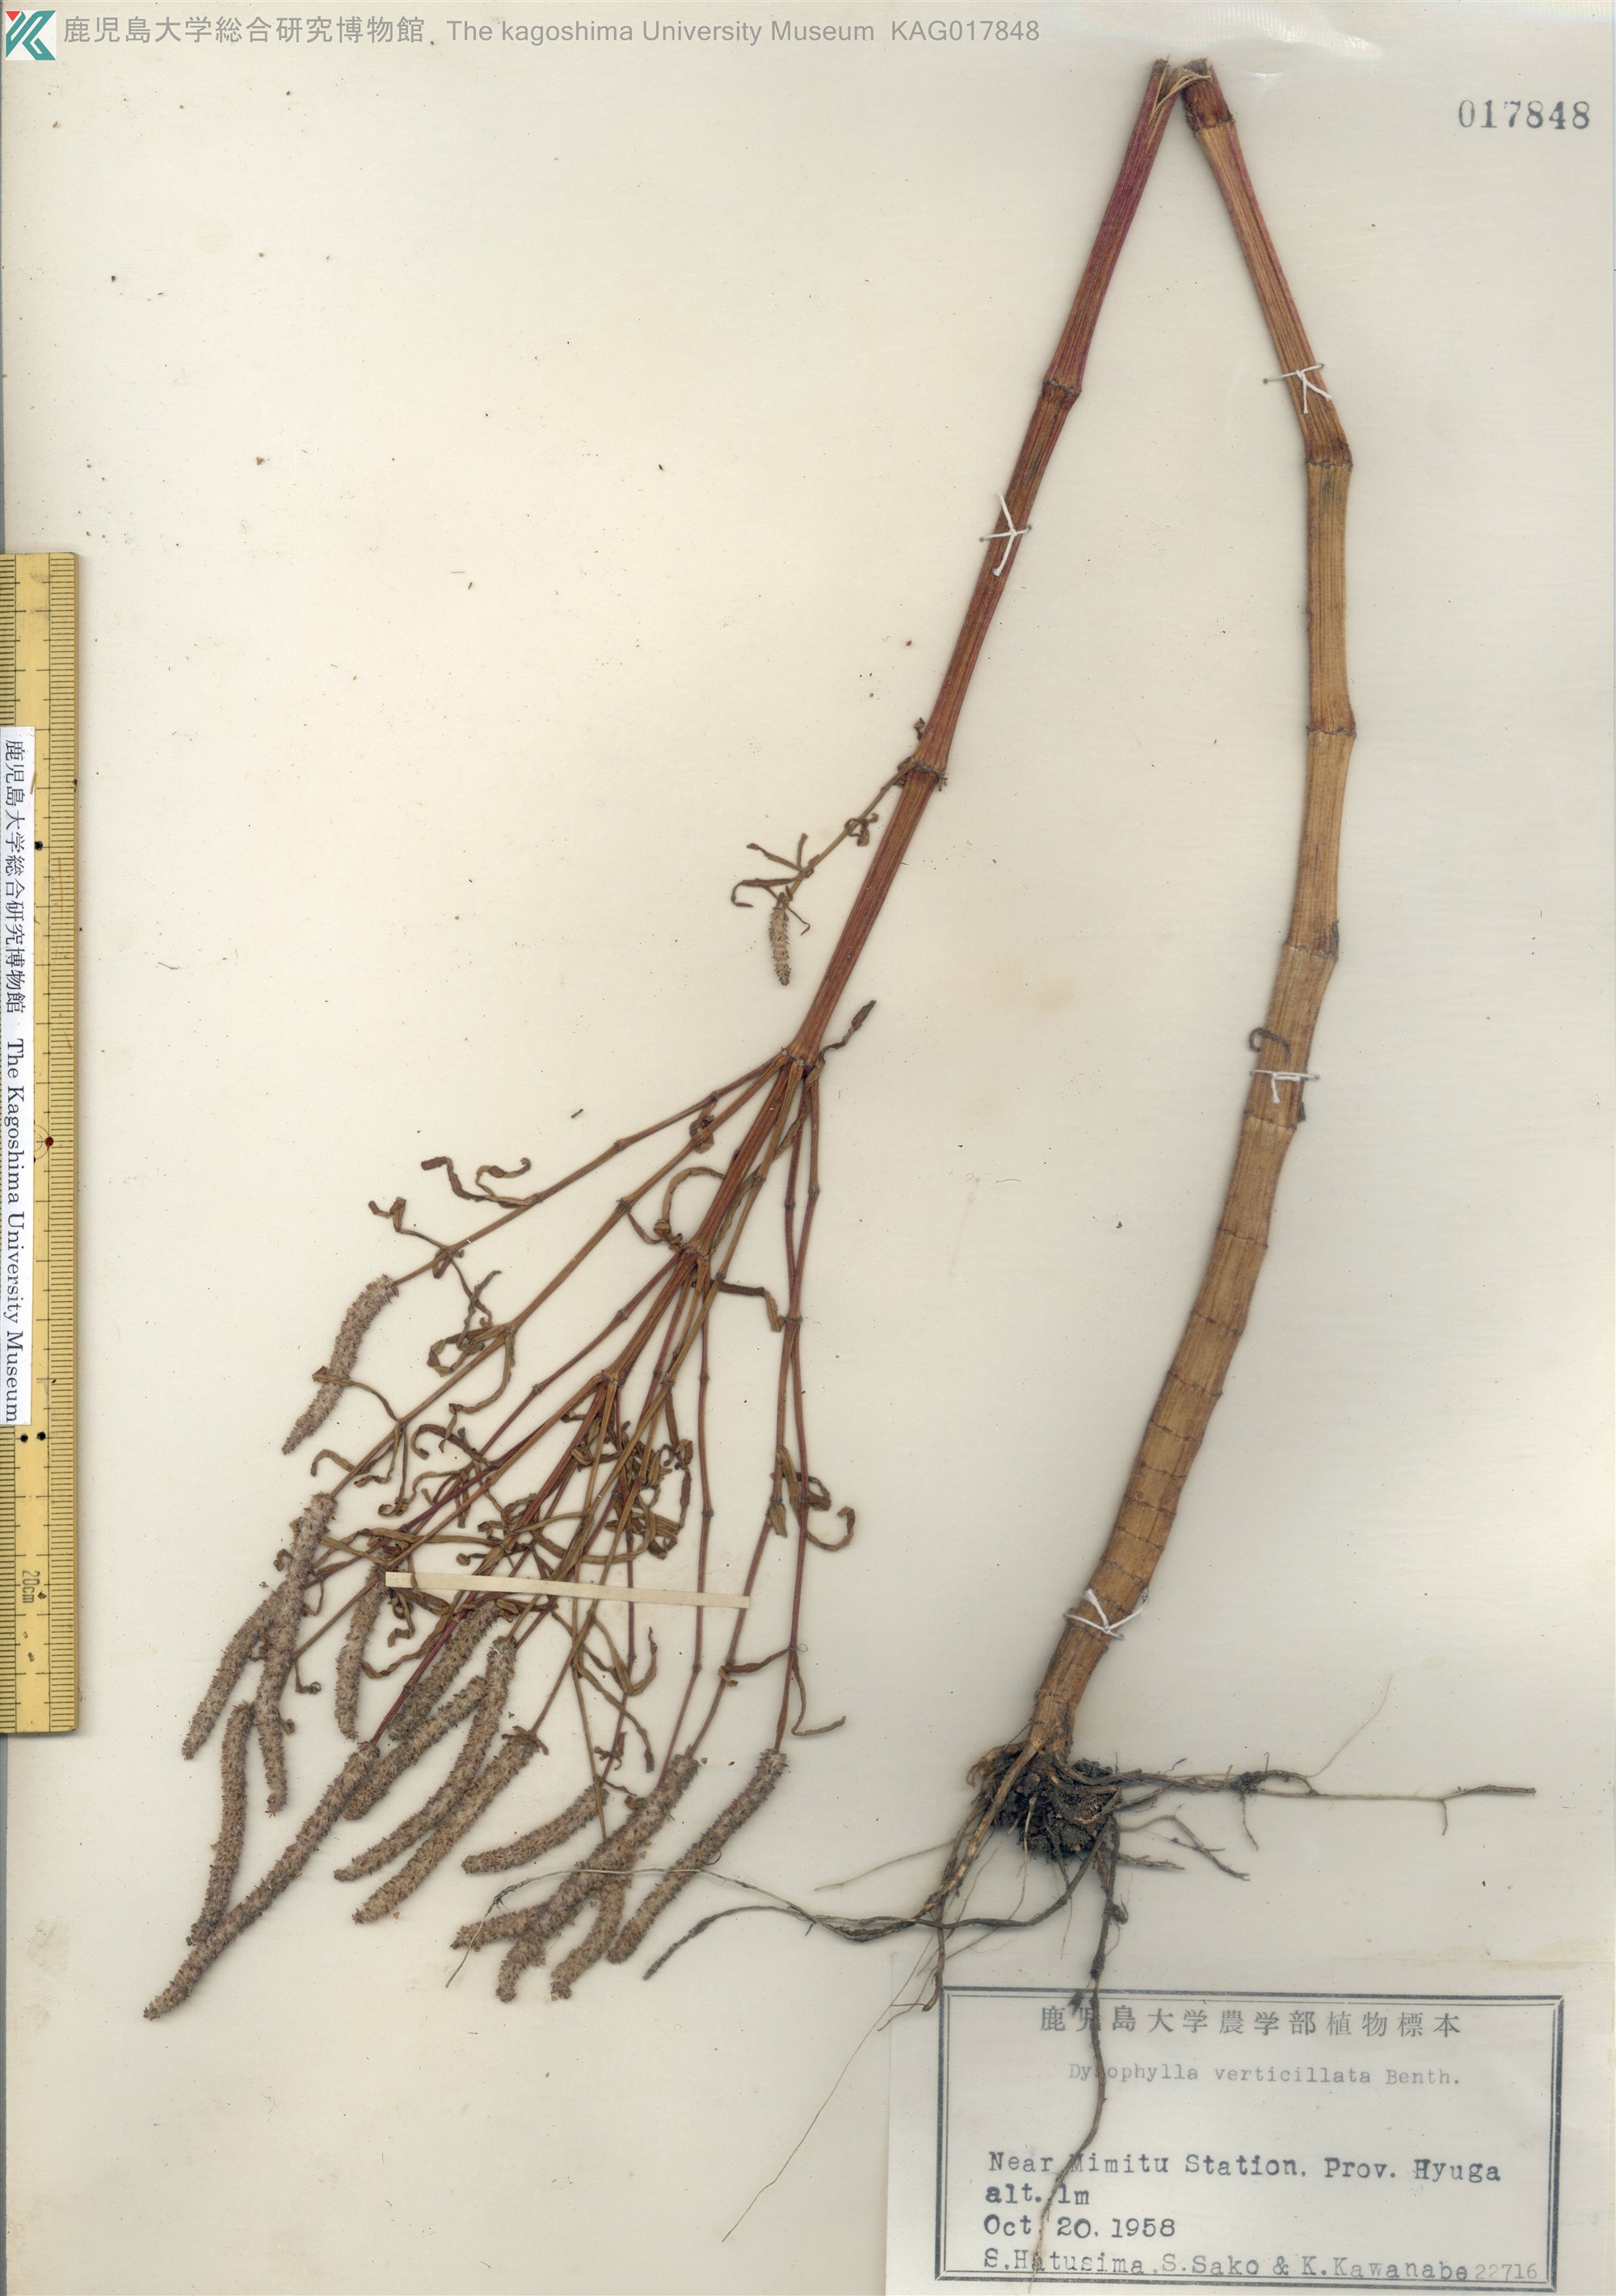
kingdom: Plantae
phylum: Tracheophyta
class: Magnoliopsida
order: Lamiales
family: Lamiaceae
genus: Pogostemon
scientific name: Pogostemon stellatus
